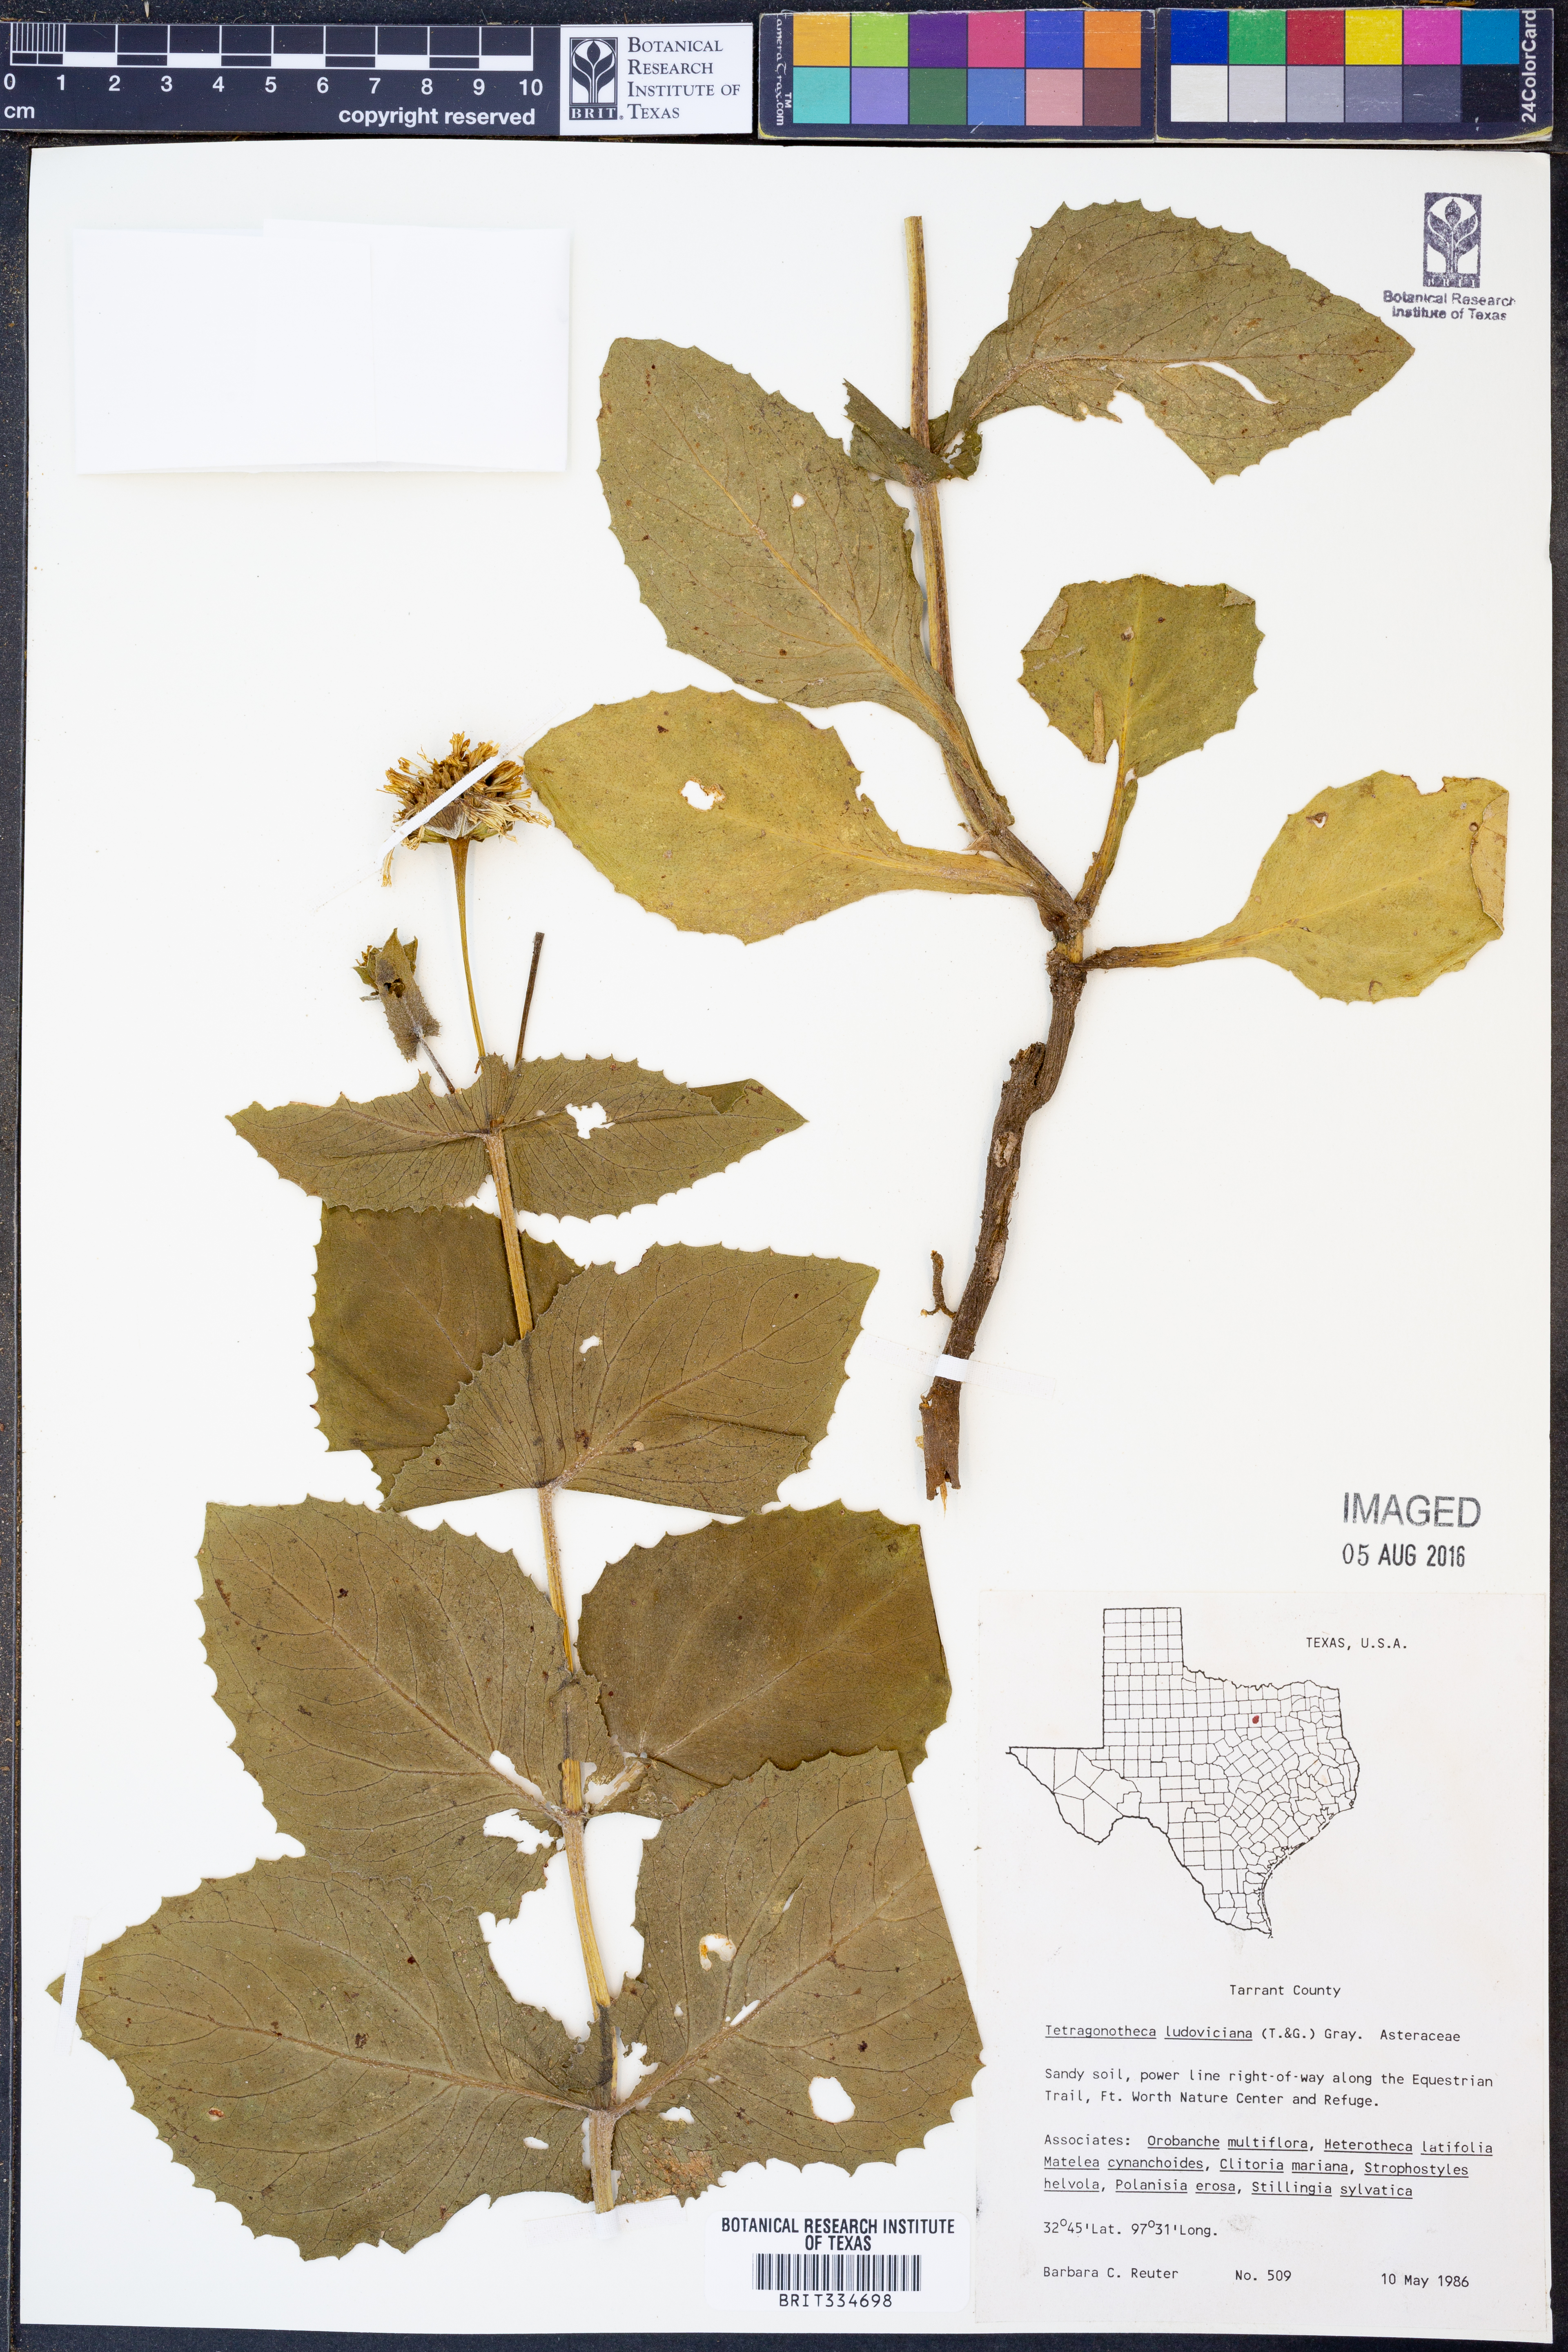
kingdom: Plantae
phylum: Tracheophyta
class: Magnoliopsida
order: Asterales
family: Asteraceae
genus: Tetragonotheca
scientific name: Tetragonotheca ludoviciana
